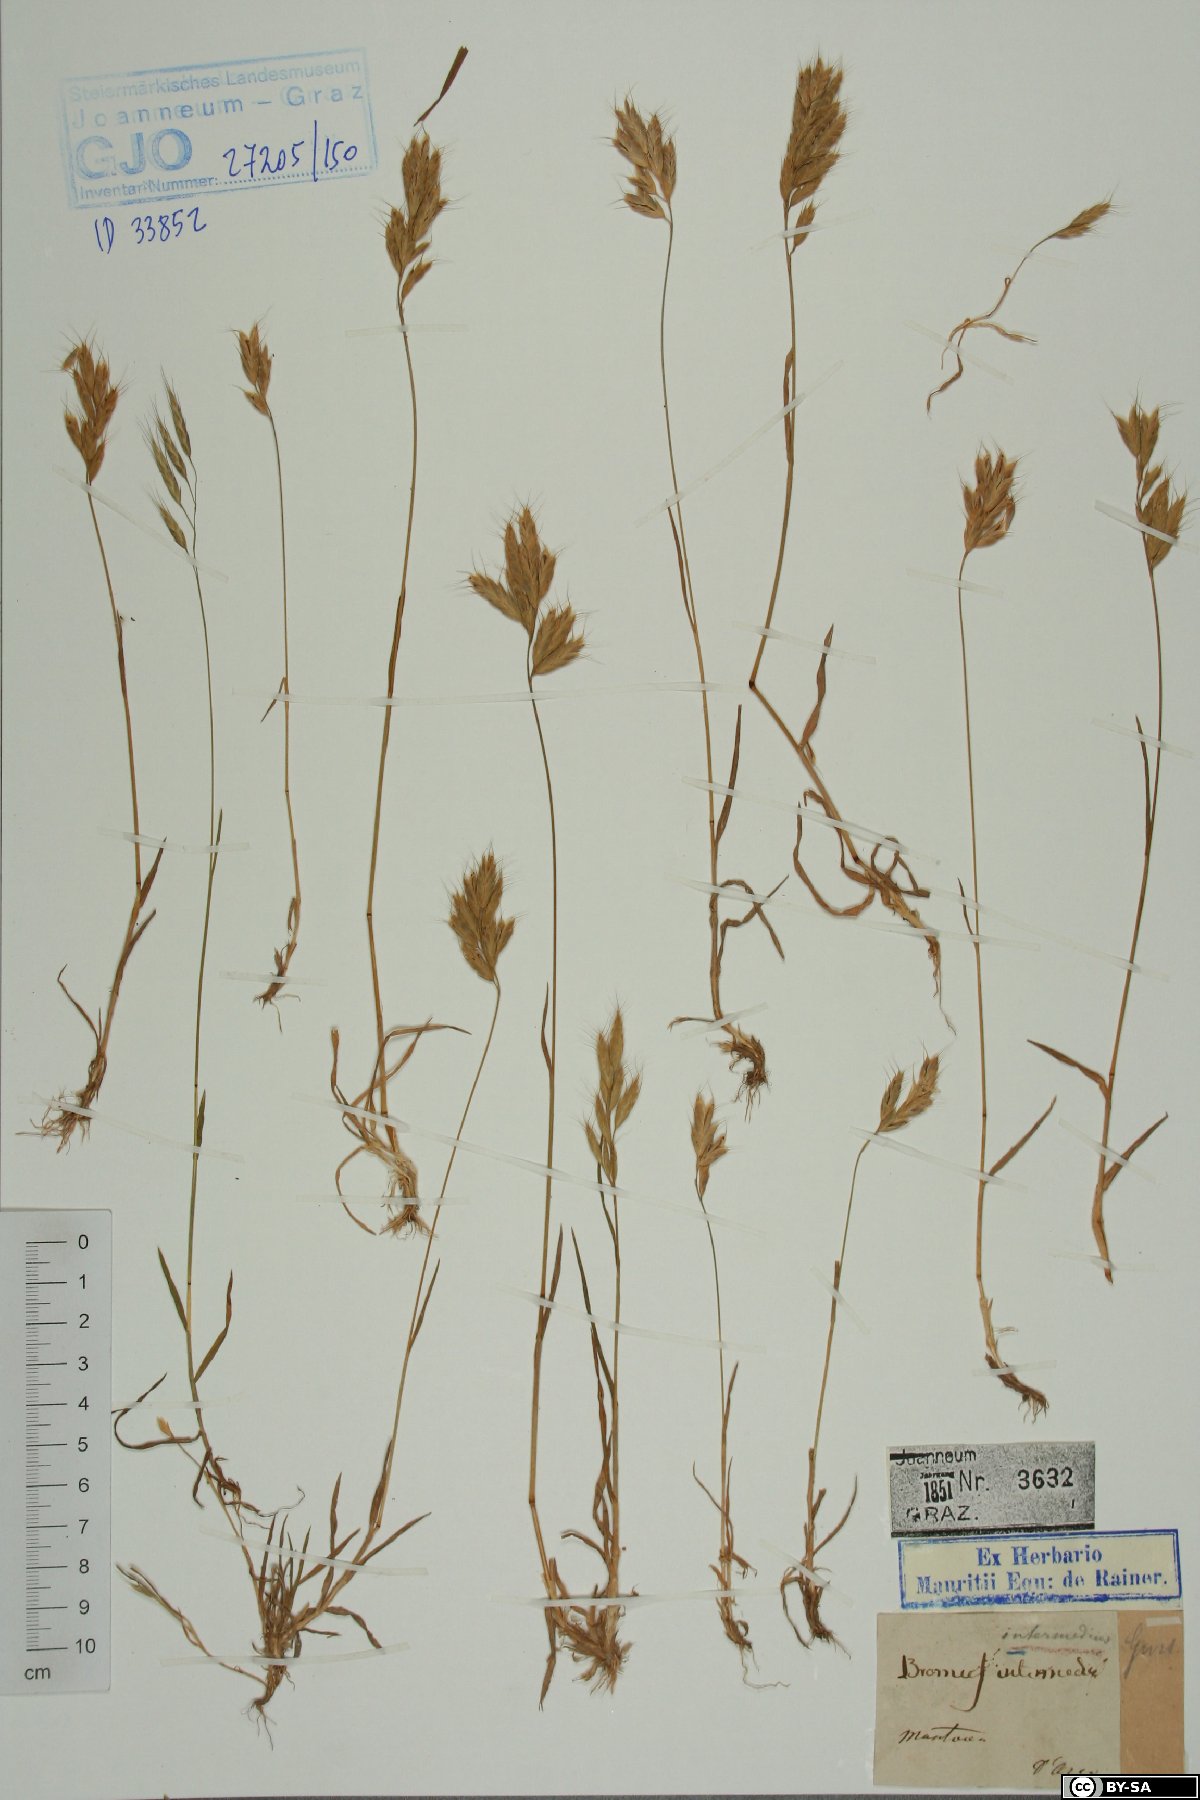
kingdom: Plantae
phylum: Tracheophyta
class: Liliopsida
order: Poales
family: Poaceae
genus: Bromus
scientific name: Bromus intermedius
